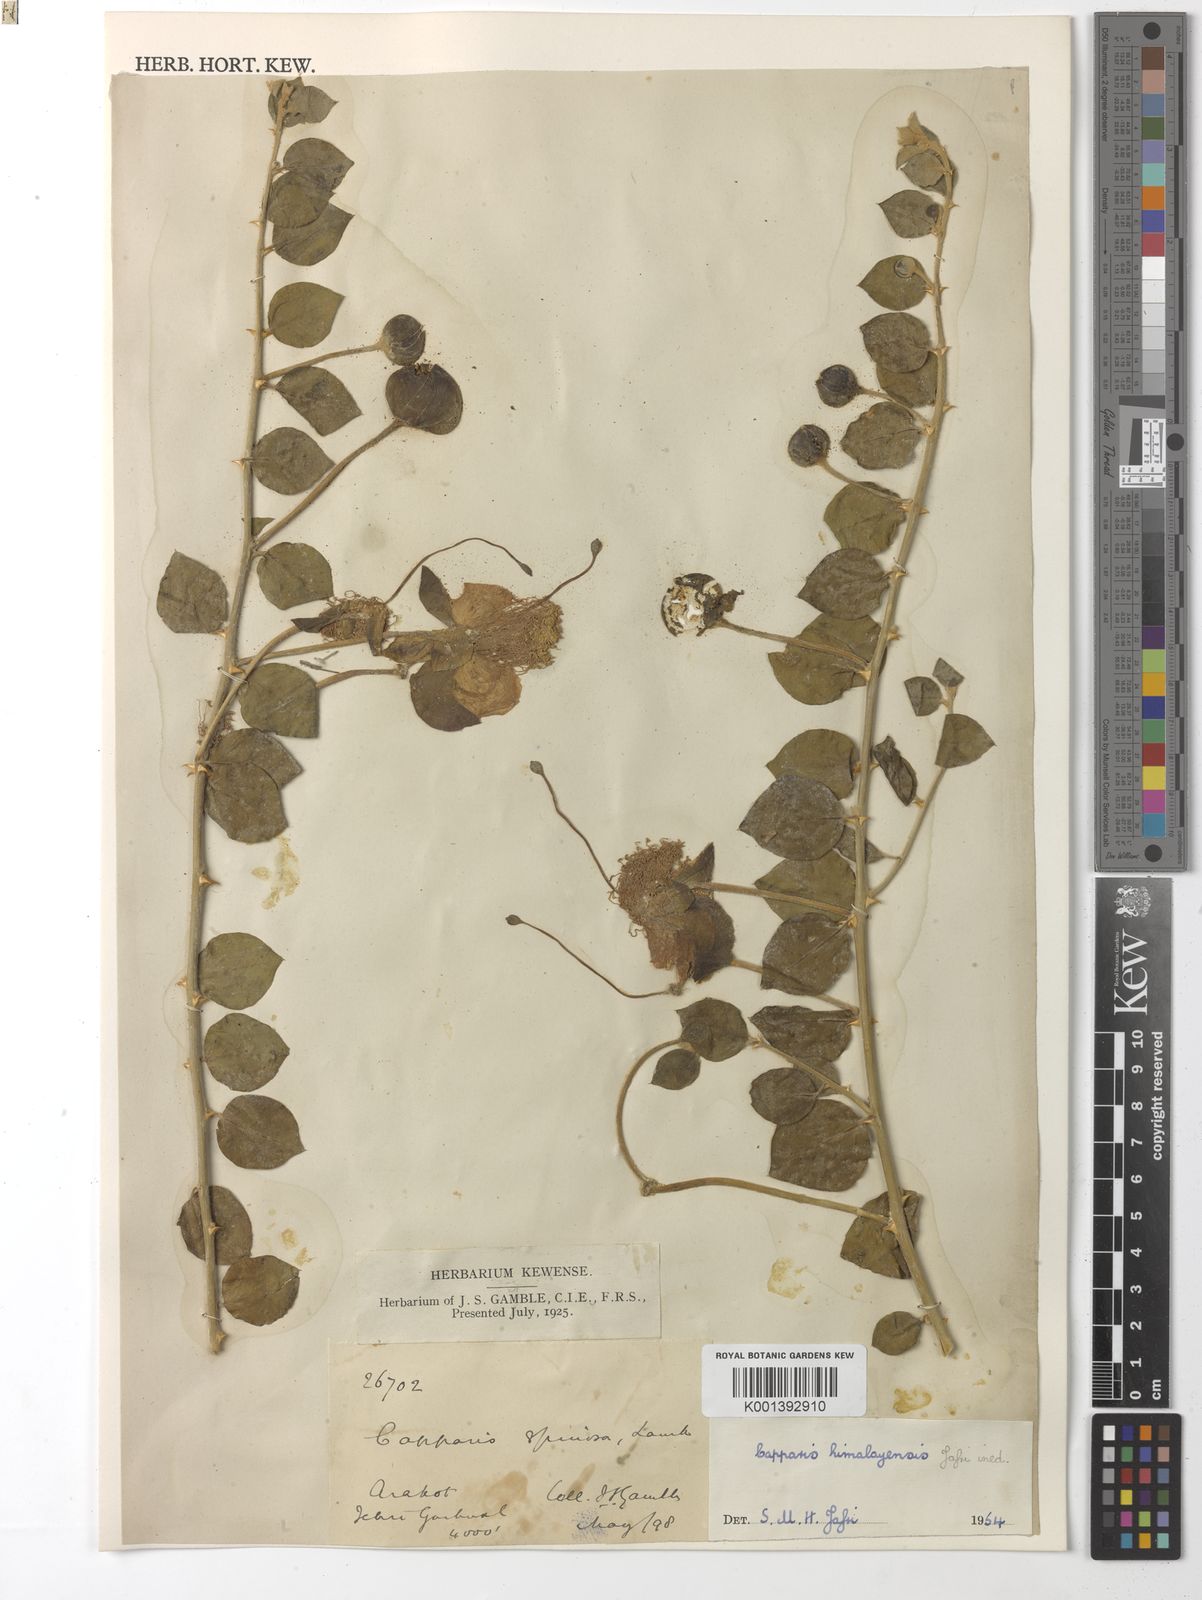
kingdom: Plantae
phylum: Tracheophyta
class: Magnoliopsida
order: Brassicales
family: Capparaceae
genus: Capparis
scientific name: Capparis spinosa
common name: Caper
